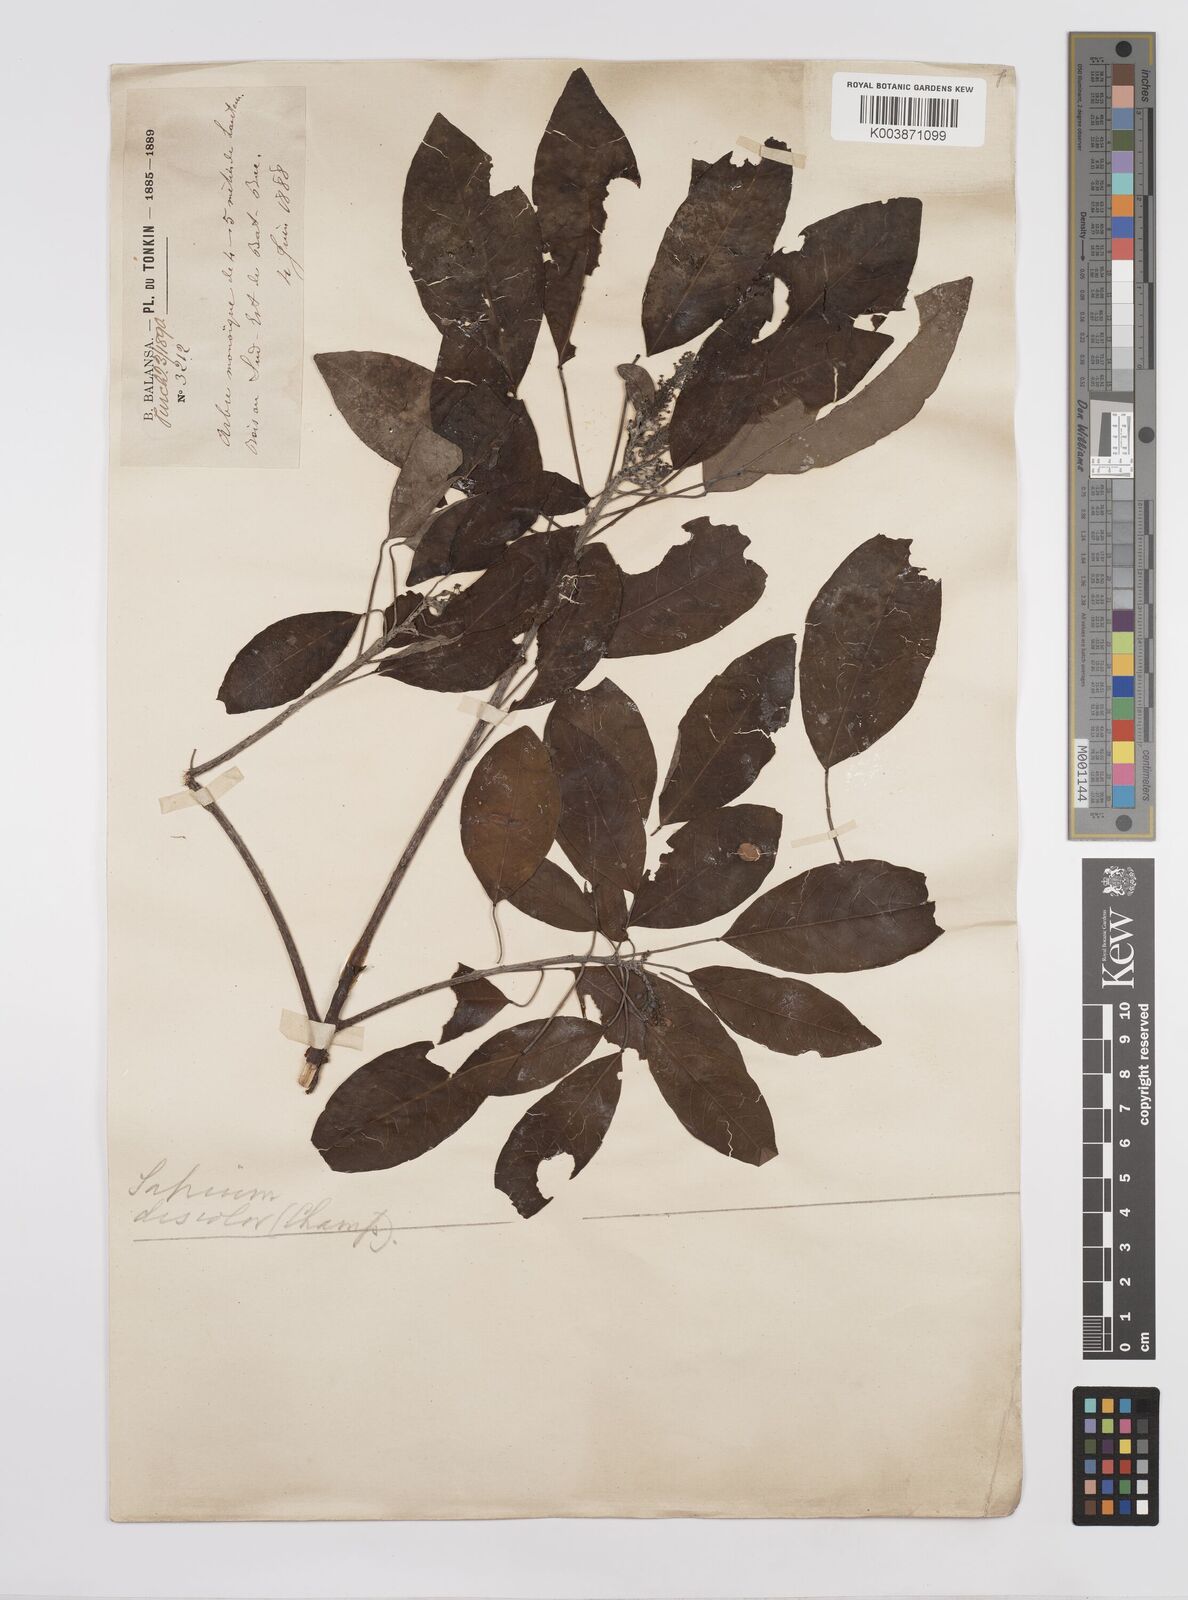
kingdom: Plantae
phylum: Tracheophyta
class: Magnoliopsida
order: Malpighiales
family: Euphorbiaceae
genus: Triadica
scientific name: Triadica cochinchinensis
